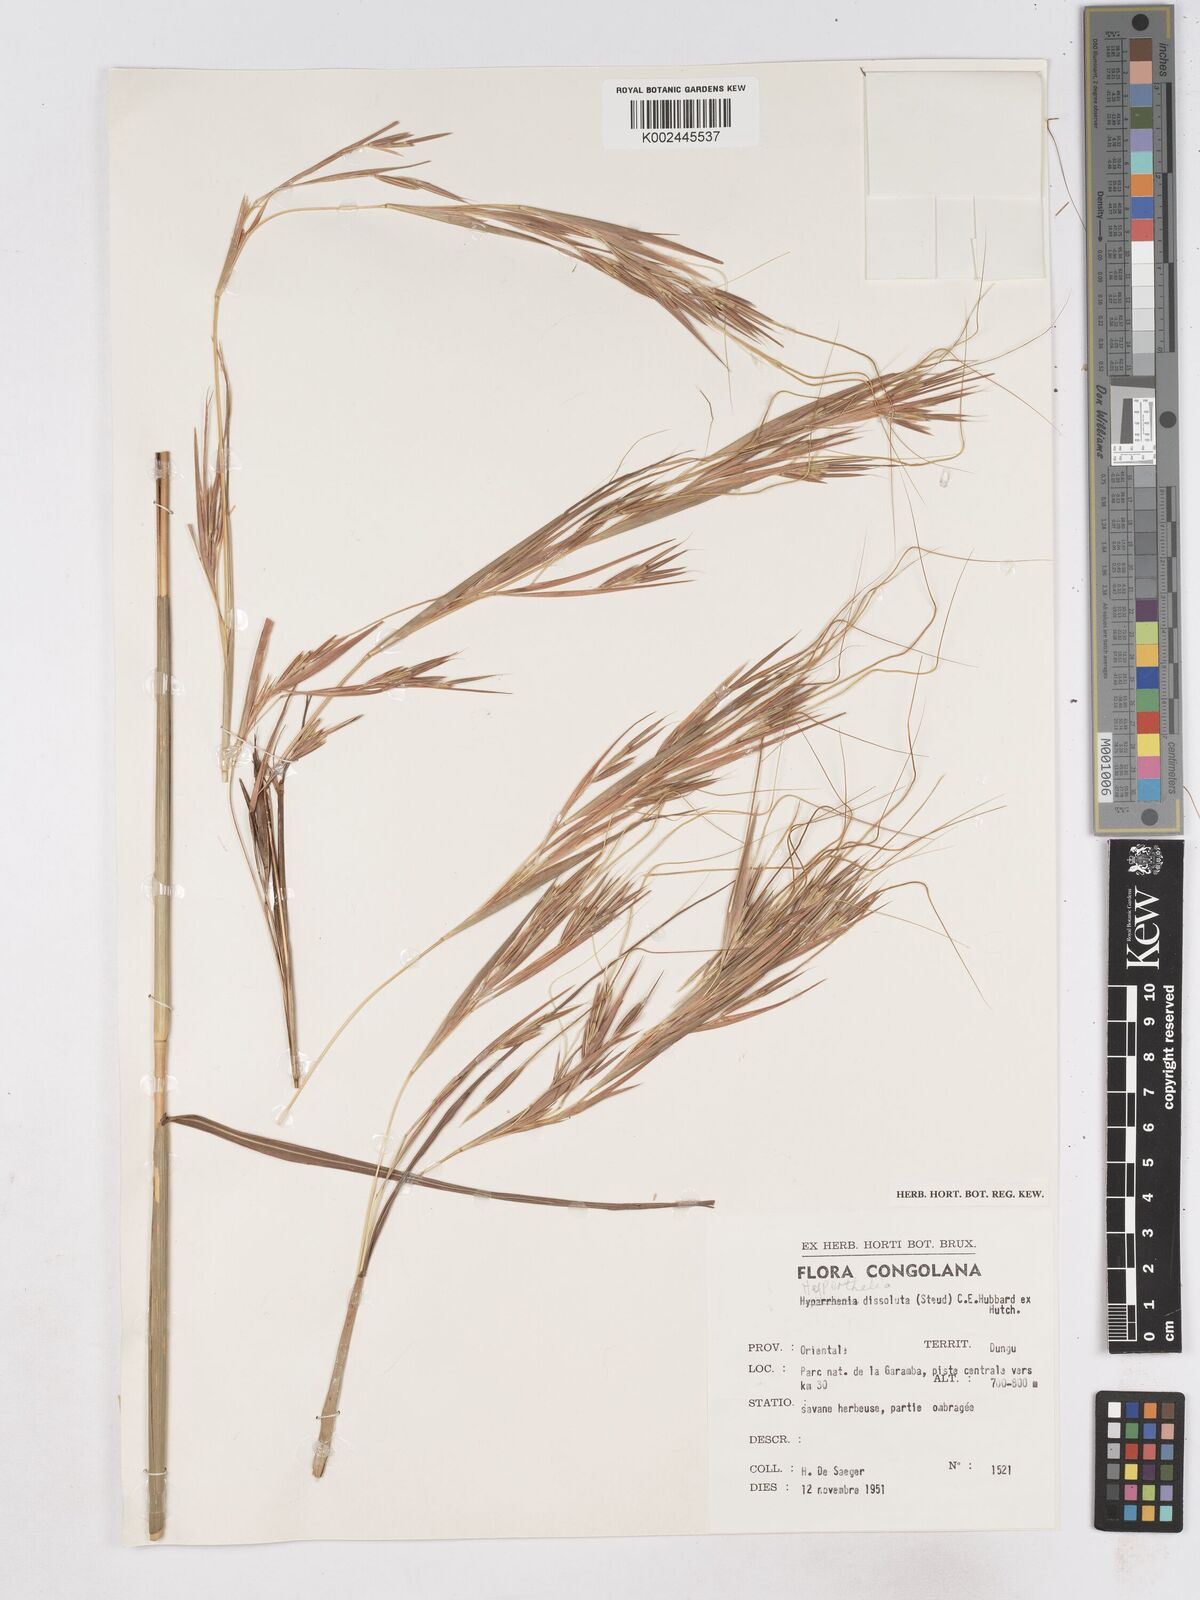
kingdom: Plantae
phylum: Tracheophyta
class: Liliopsida
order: Poales
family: Poaceae
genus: Hyperthelia
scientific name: Hyperthelia dissoluta
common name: Yellow thatching grass
